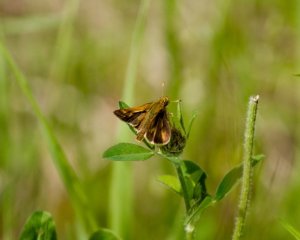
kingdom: Animalia
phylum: Arthropoda
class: Insecta
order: Lepidoptera
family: Hesperiidae
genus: Polites
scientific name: Polites coras
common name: Peck's Skipper
